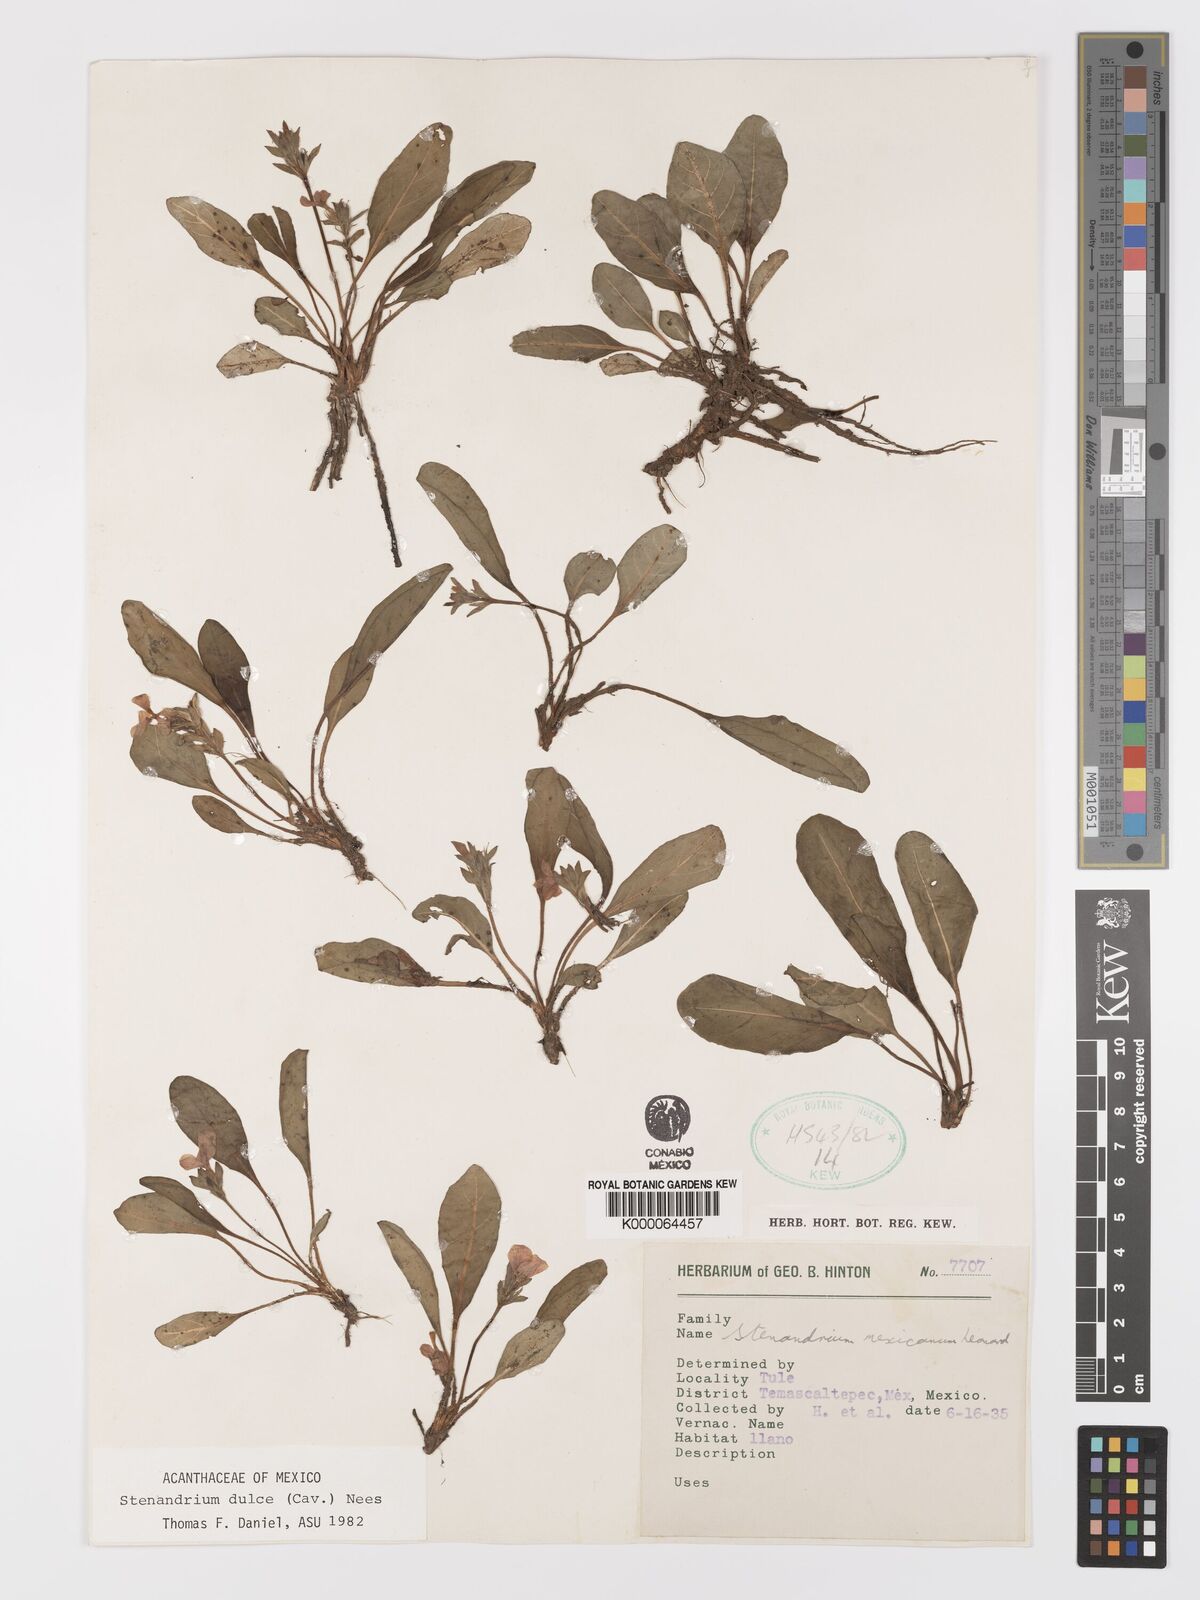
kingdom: Plantae
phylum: Tracheophyta
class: Magnoliopsida
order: Lamiales
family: Acanthaceae
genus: Stenandrium
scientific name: Stenandrium dulce
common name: Pinklet
